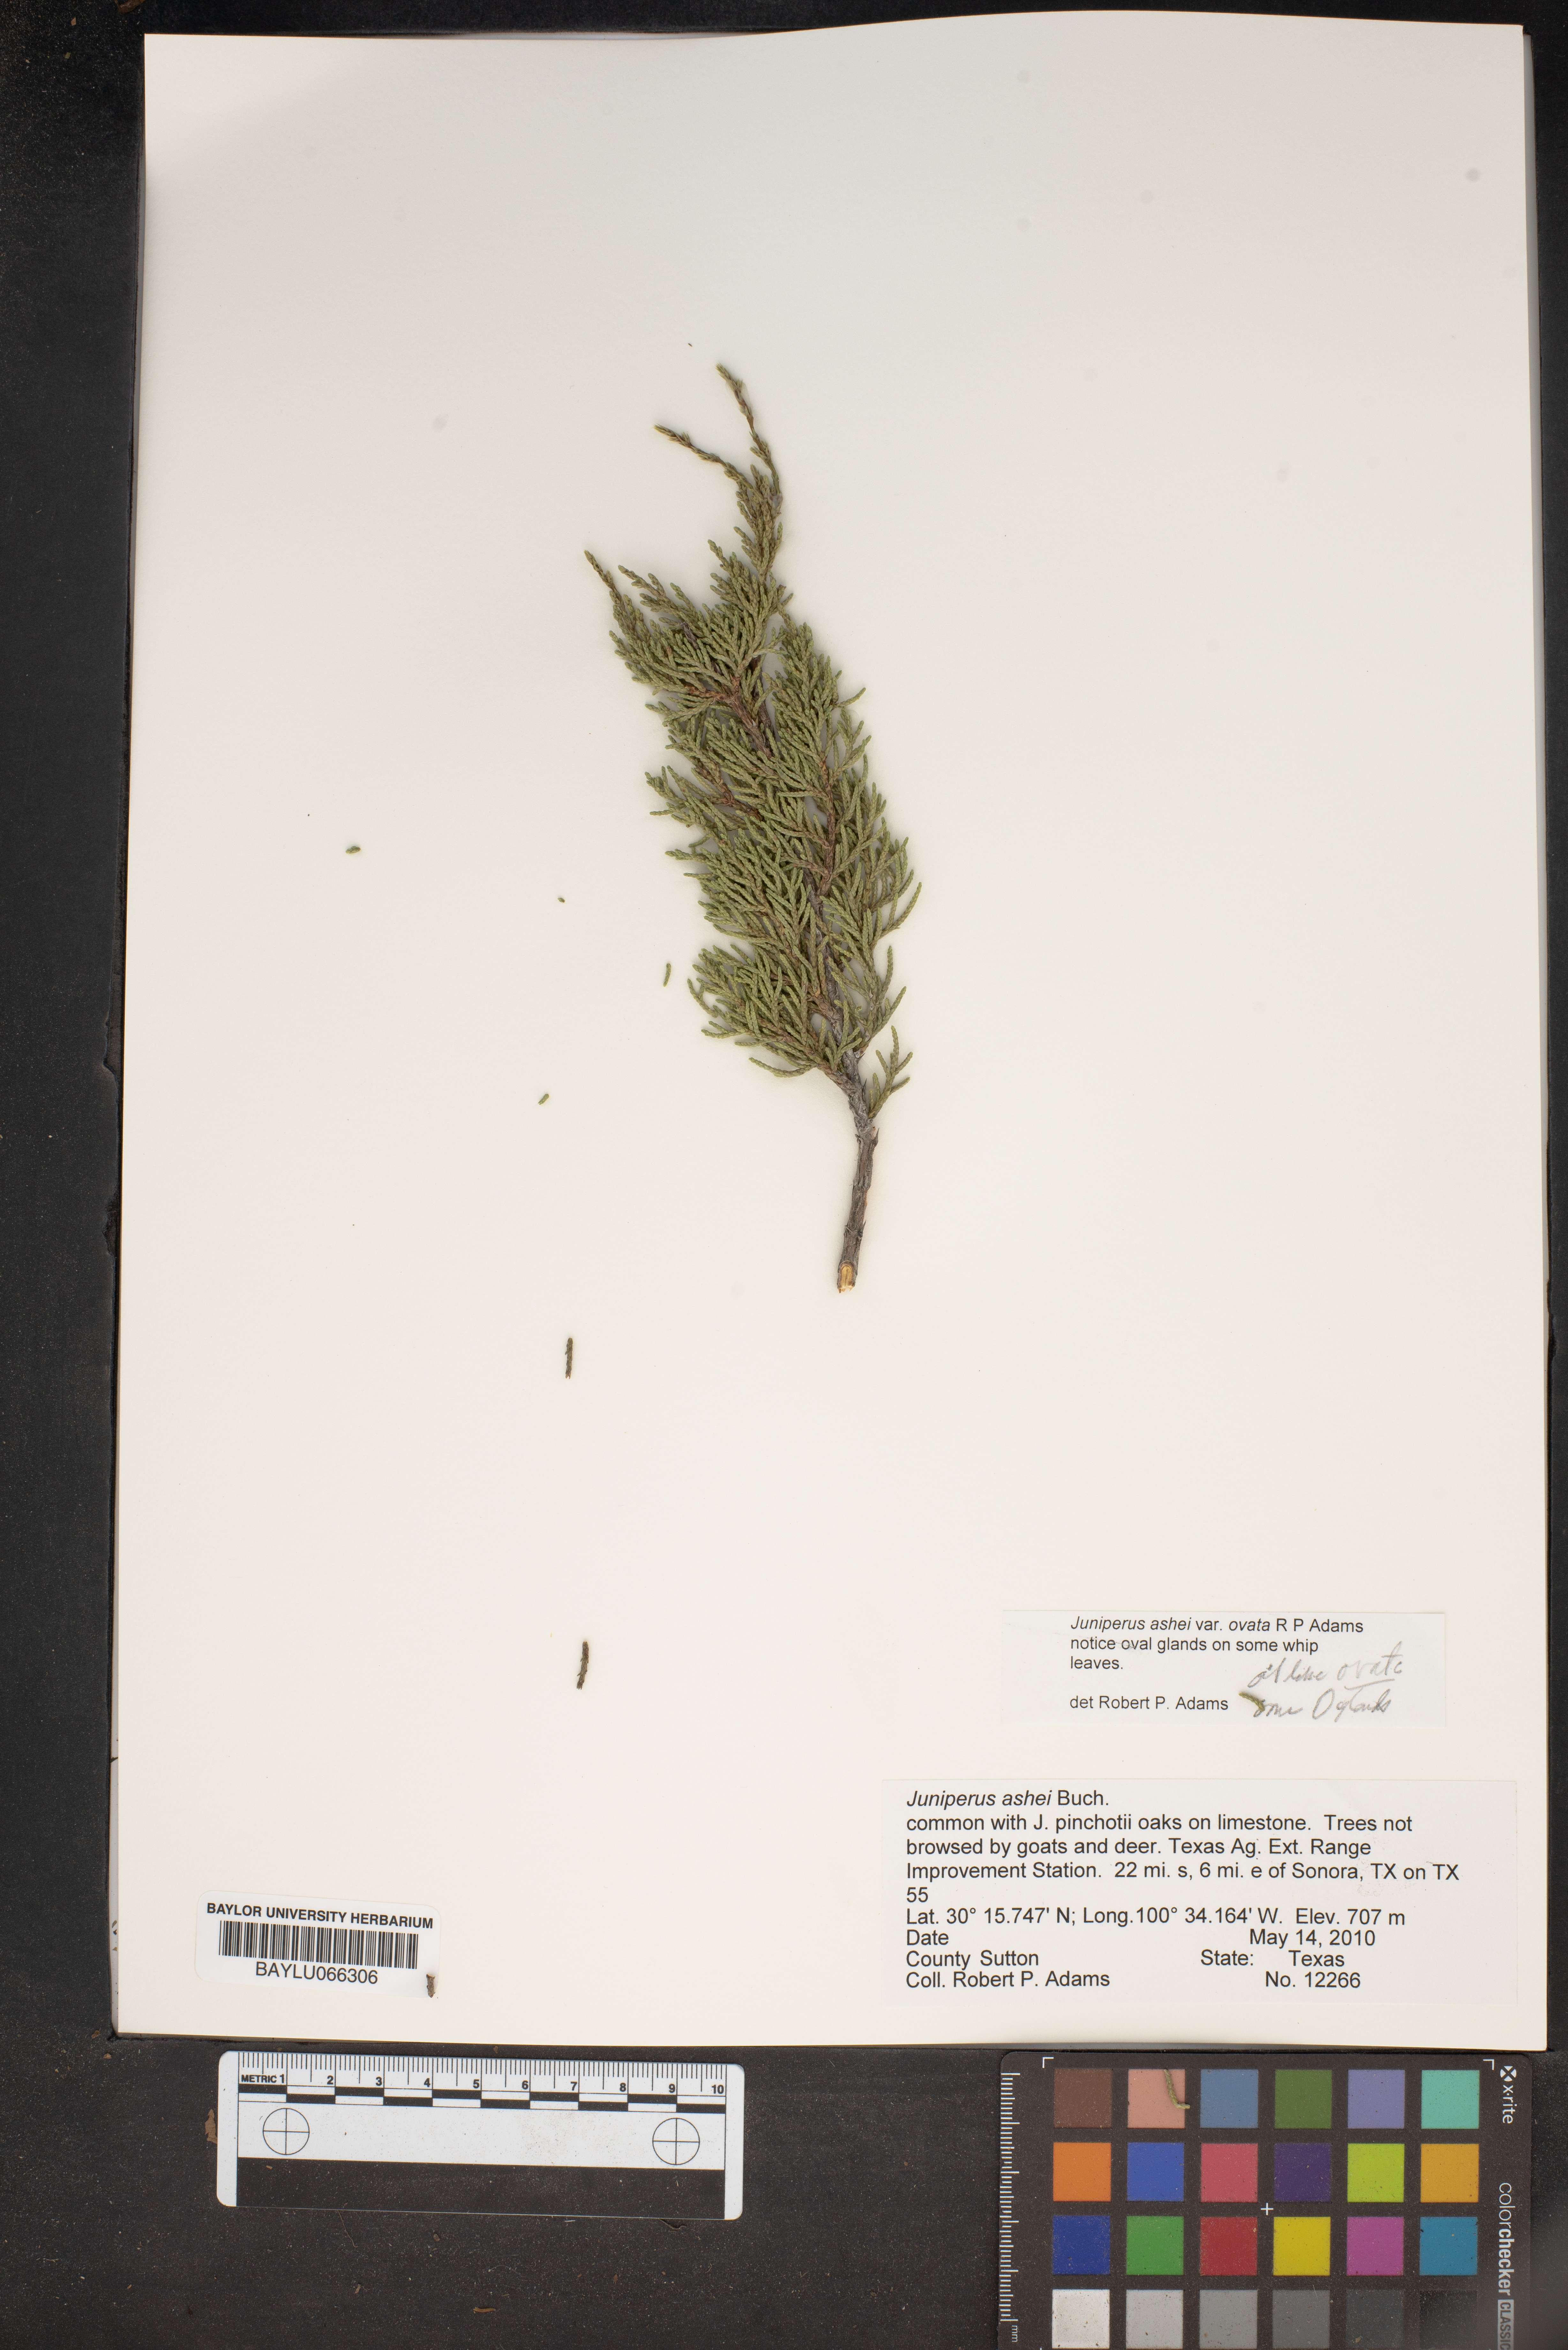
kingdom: Plantae
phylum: Tracheophyta
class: Pinopsida
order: Pinales
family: Cupressaceae
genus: Juniperus
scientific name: Juniperus ashei
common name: Mexican juniper
